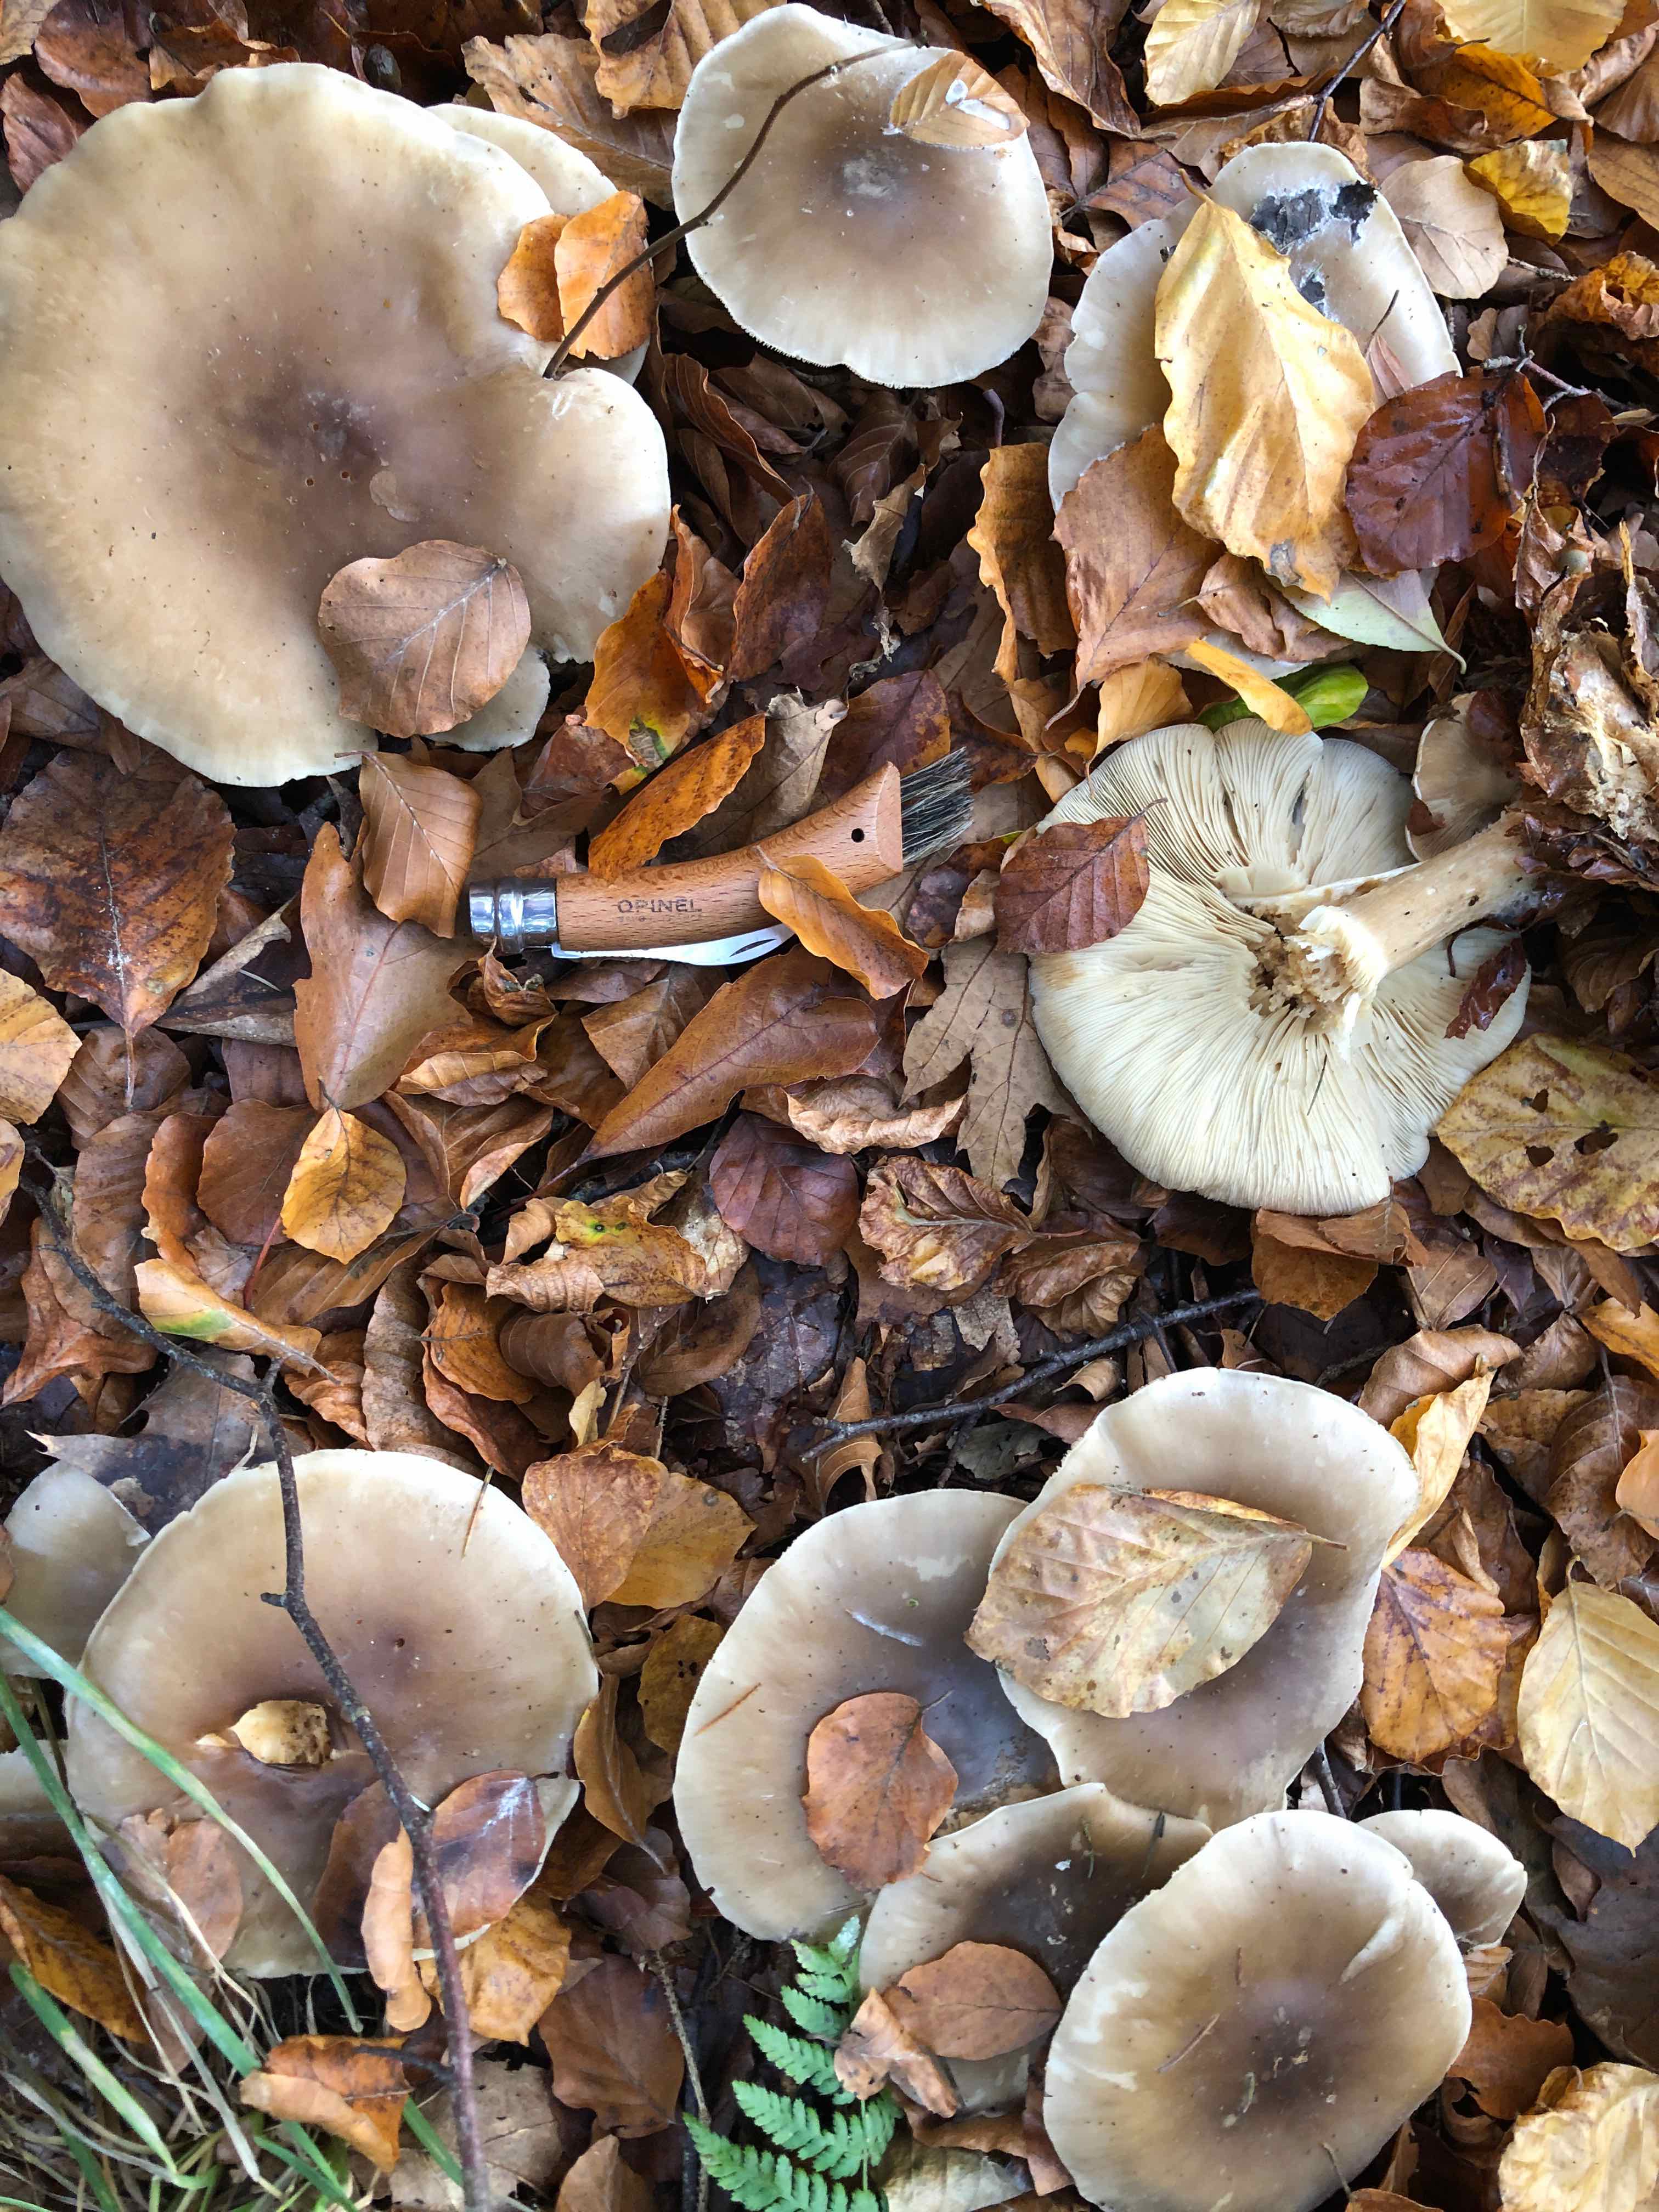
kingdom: Fungi
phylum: Basidiomycota
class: Agaricomycetes
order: Agaricales
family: Tricholomataceae
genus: Clitocybe
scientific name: Clitocybe nebularis
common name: tåge-tragthat
